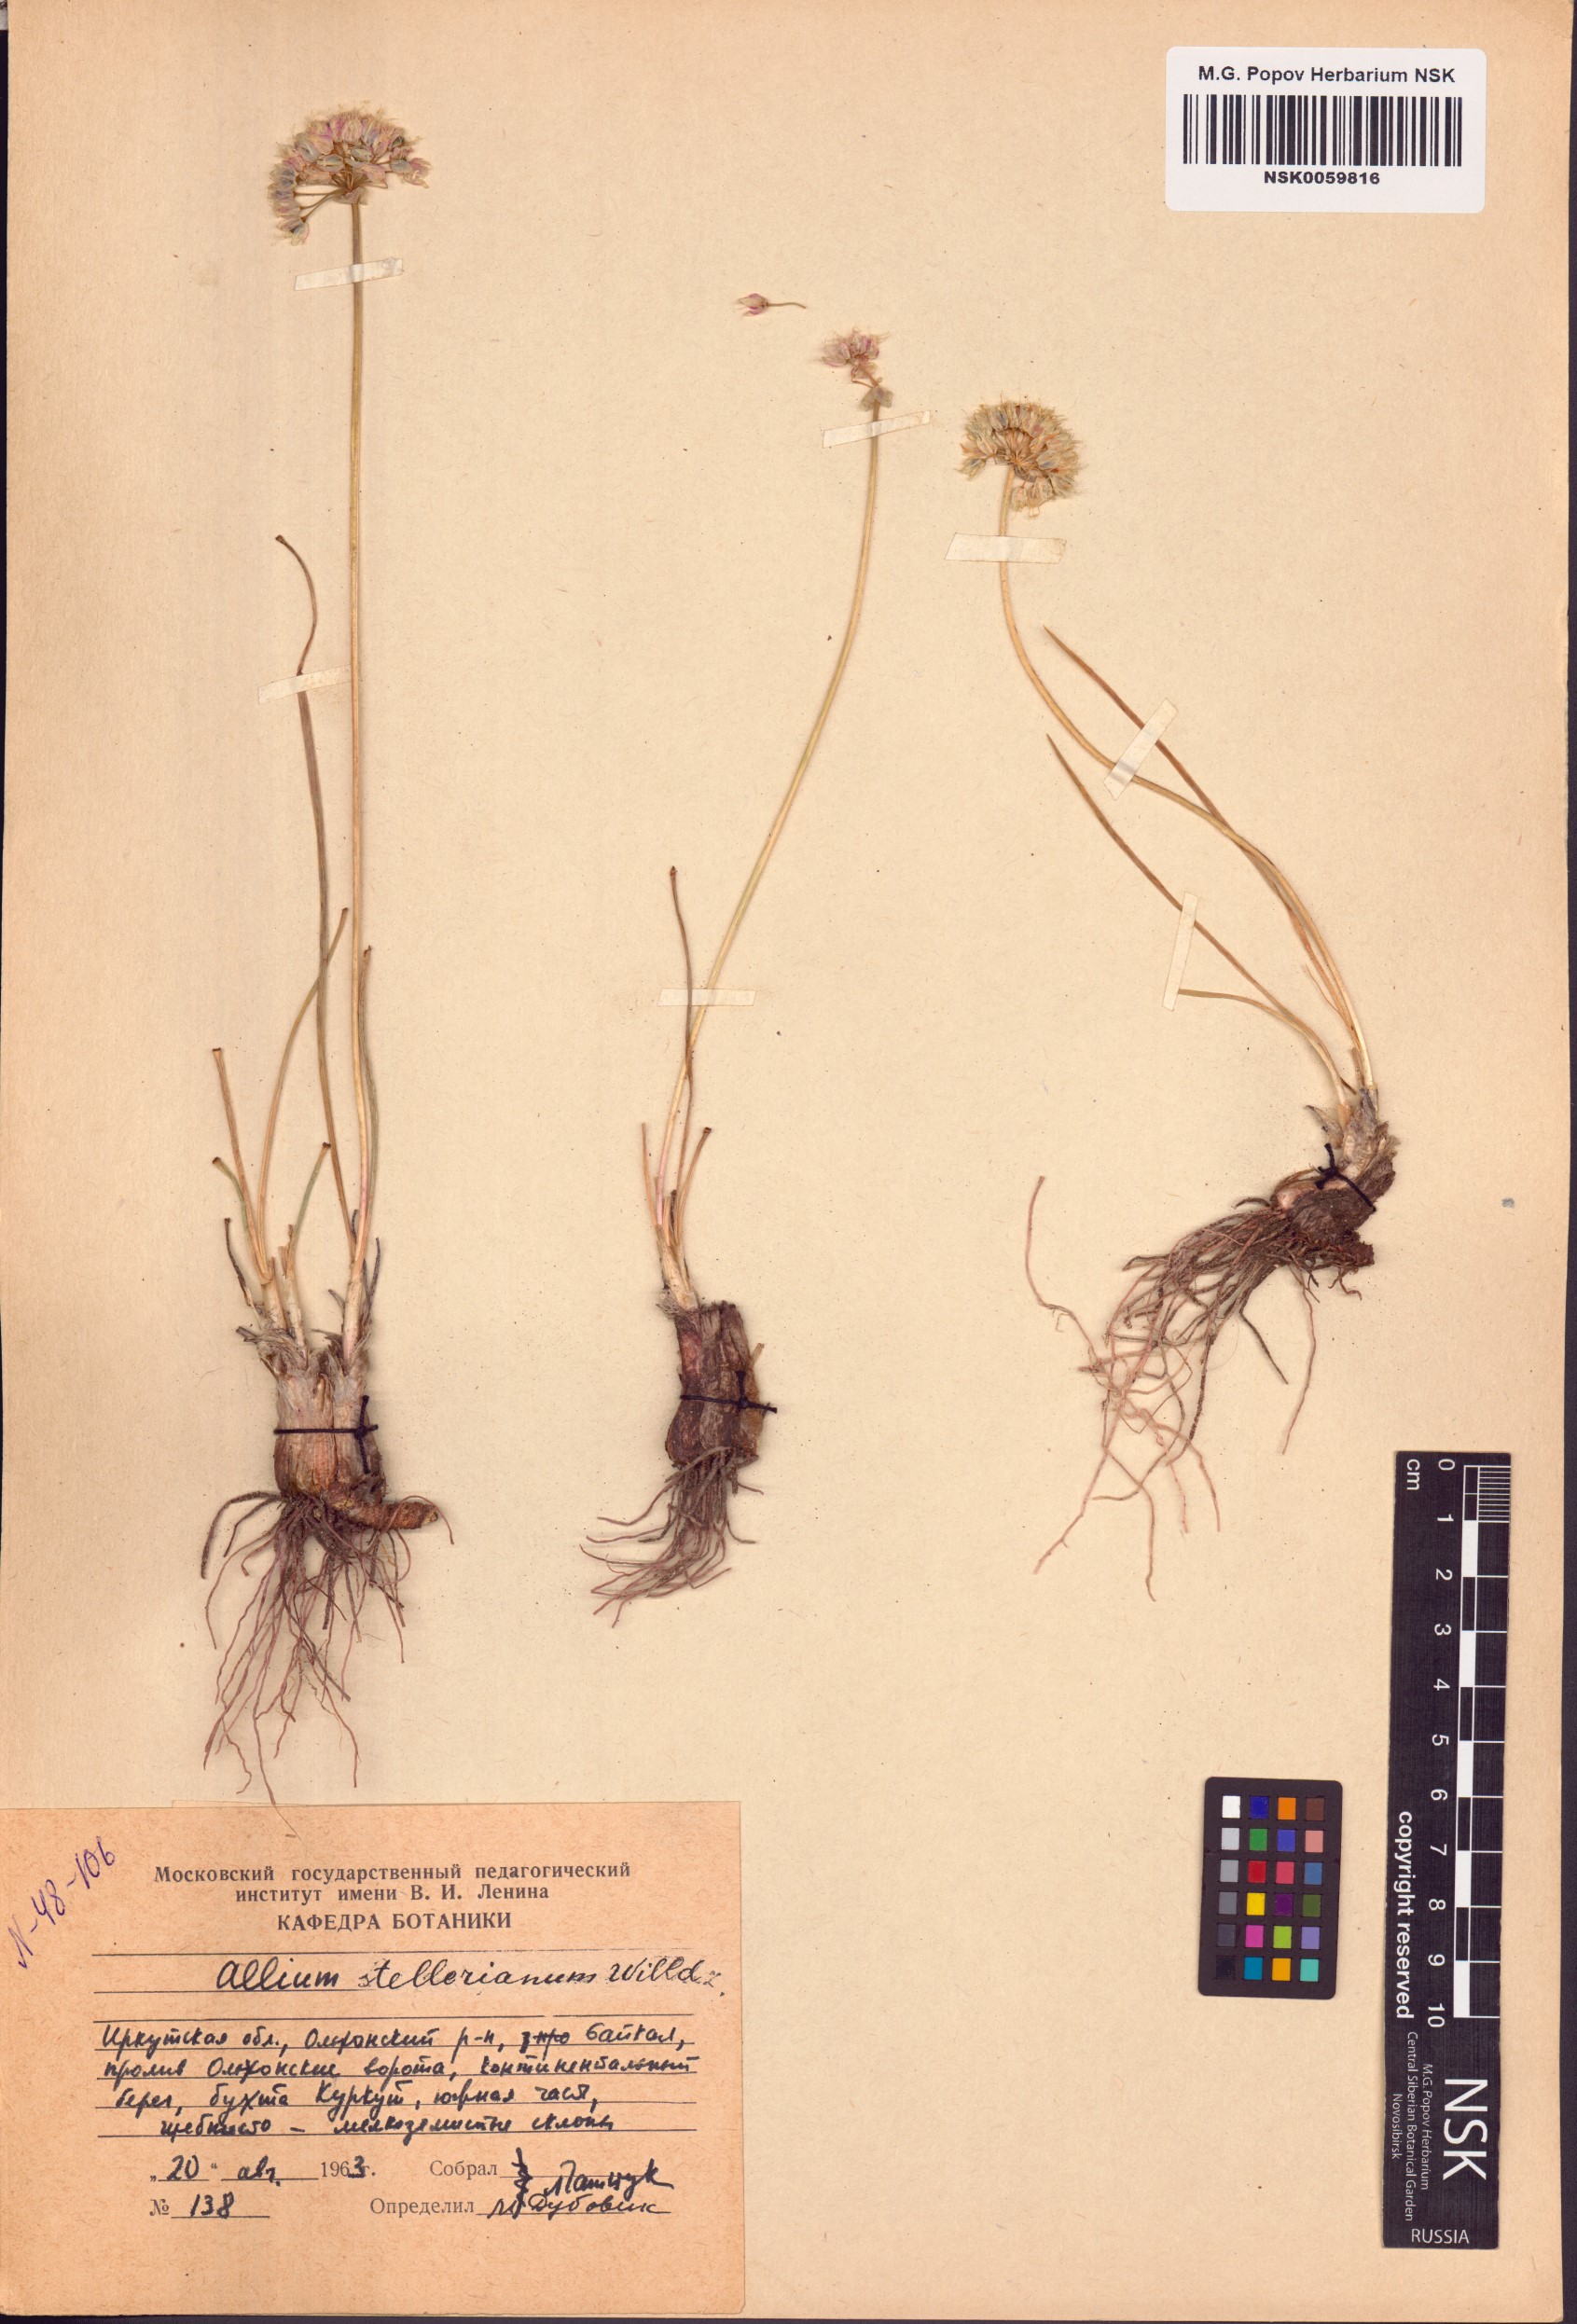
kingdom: Plantae
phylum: Tracheophyta
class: Liliopsida
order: Asparagales
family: Amaryllidaceae
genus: Allium
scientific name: Allium stellerianum
